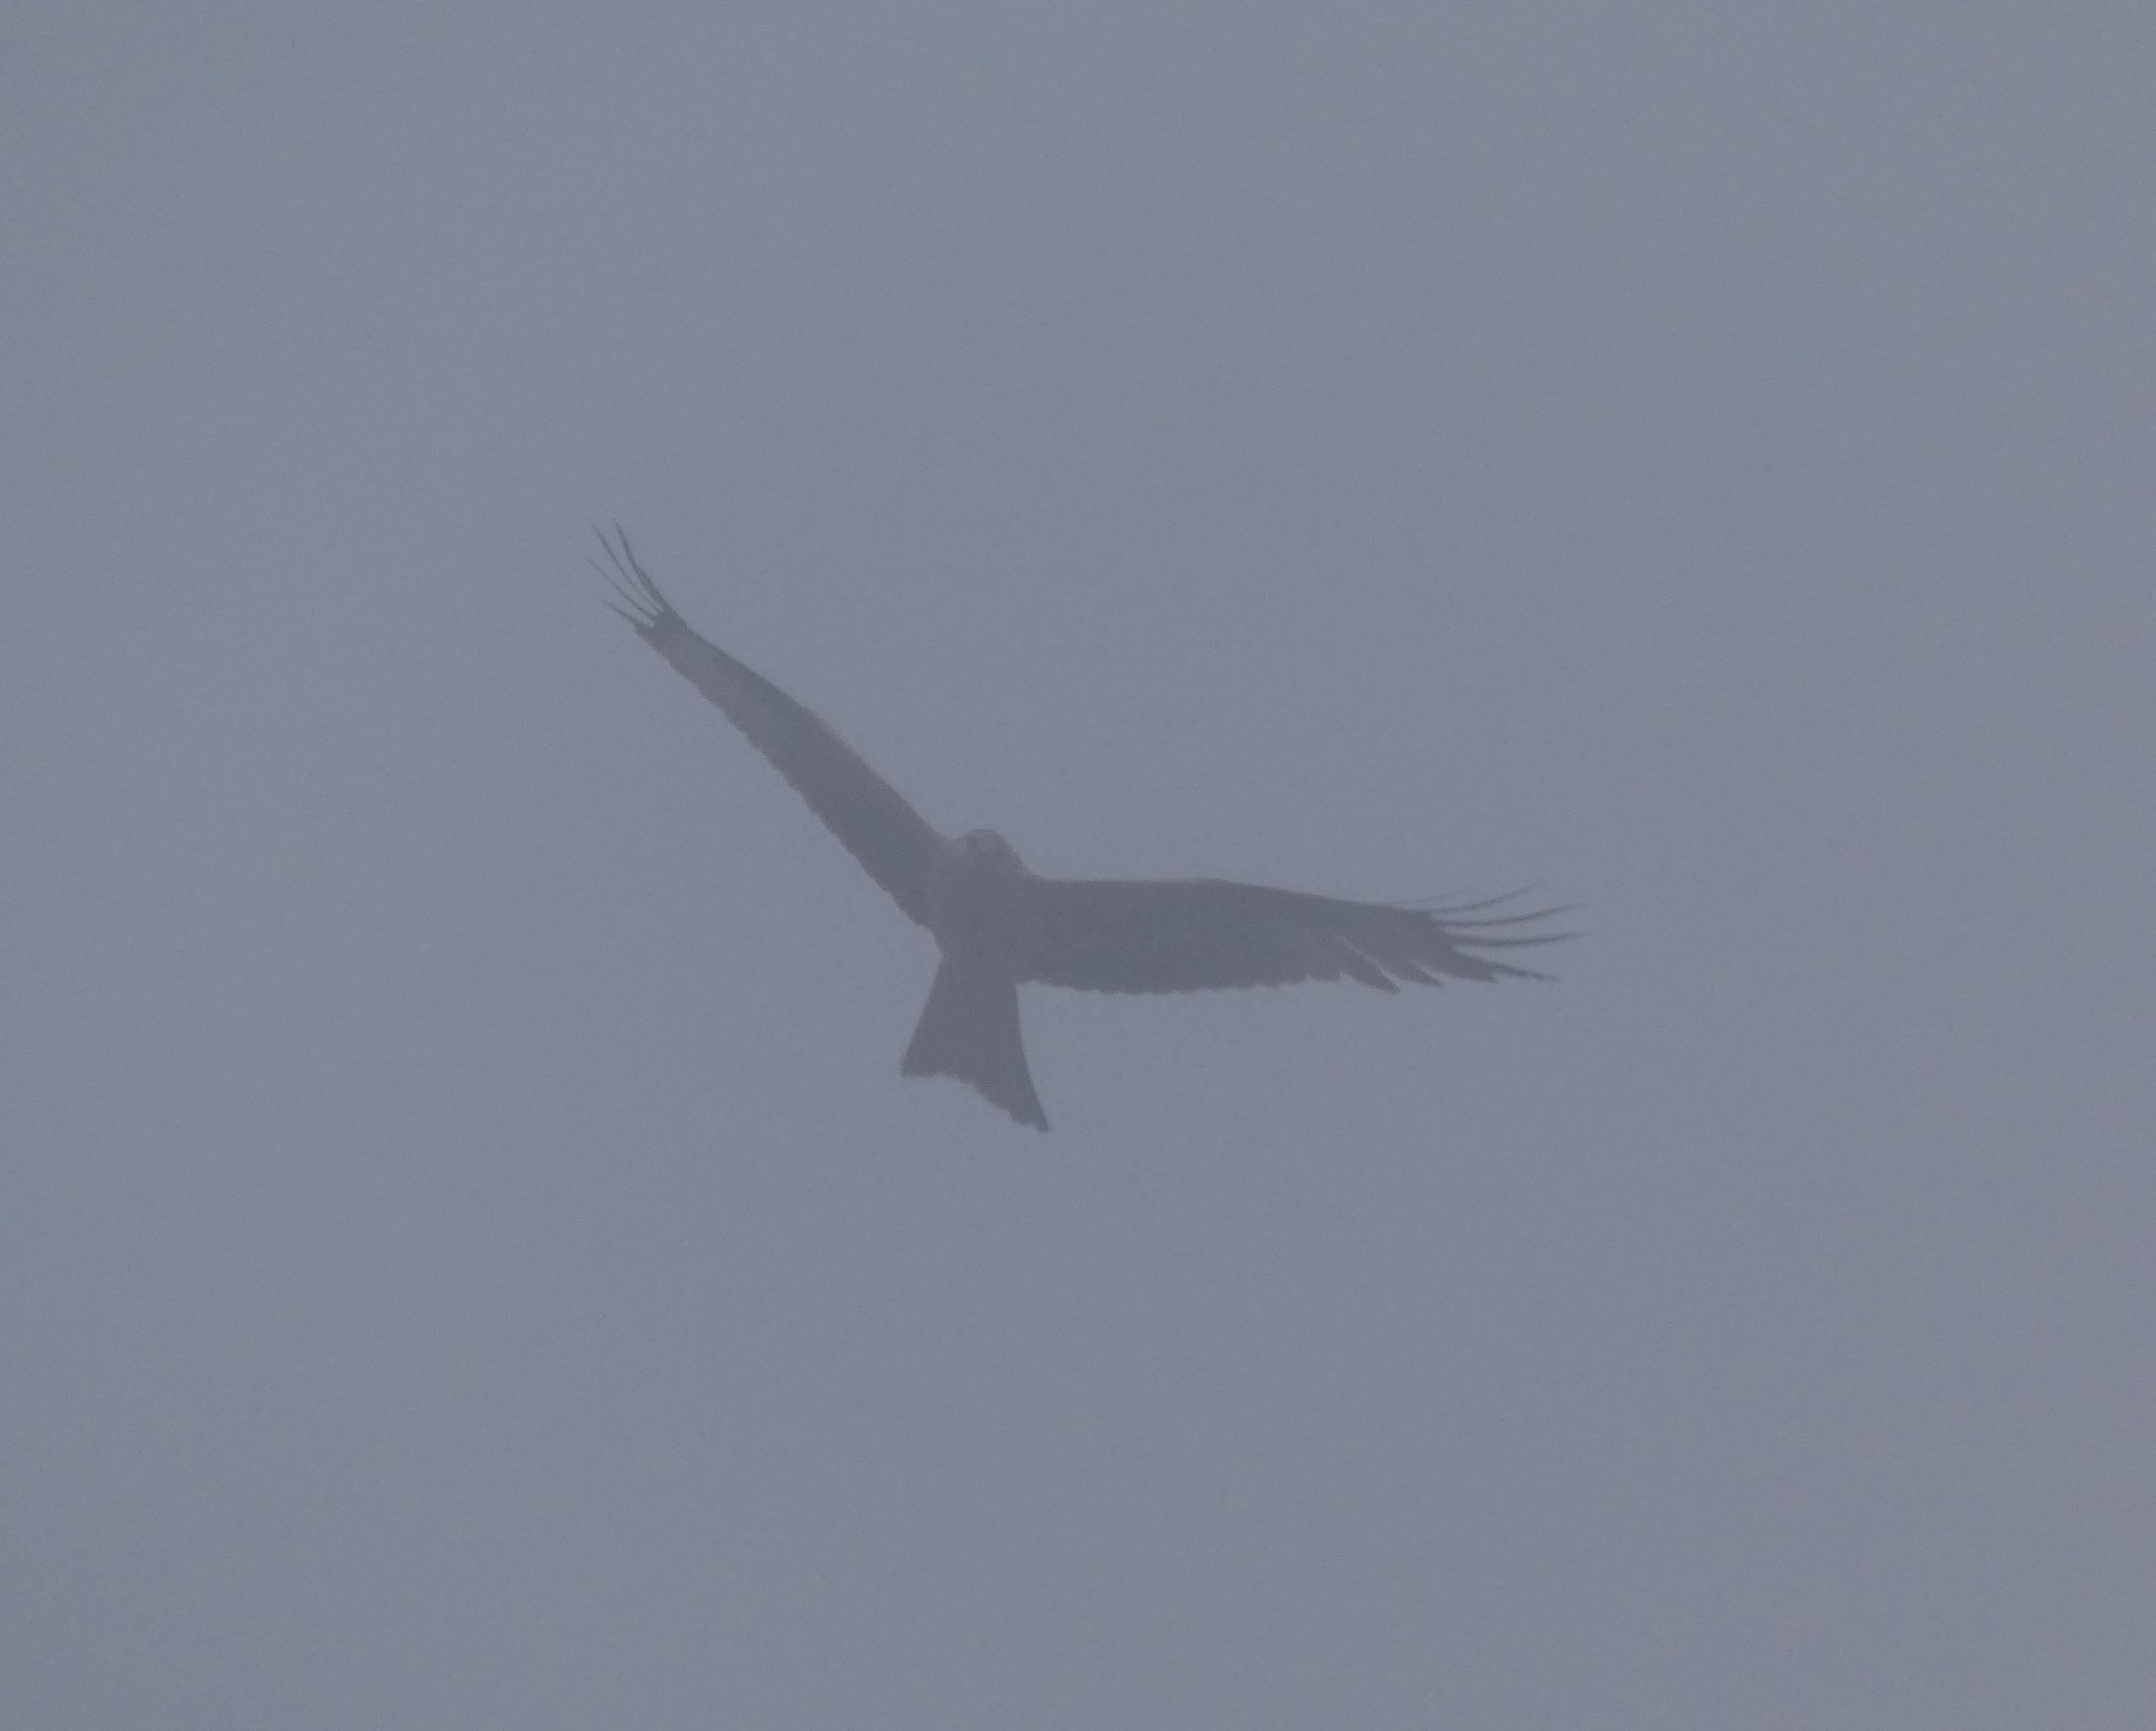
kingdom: Animalia
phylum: Chordata
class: Aves
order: Accipitriformes
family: Accipitridae
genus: Milvus
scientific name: Milvus milvus
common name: Rød glente
